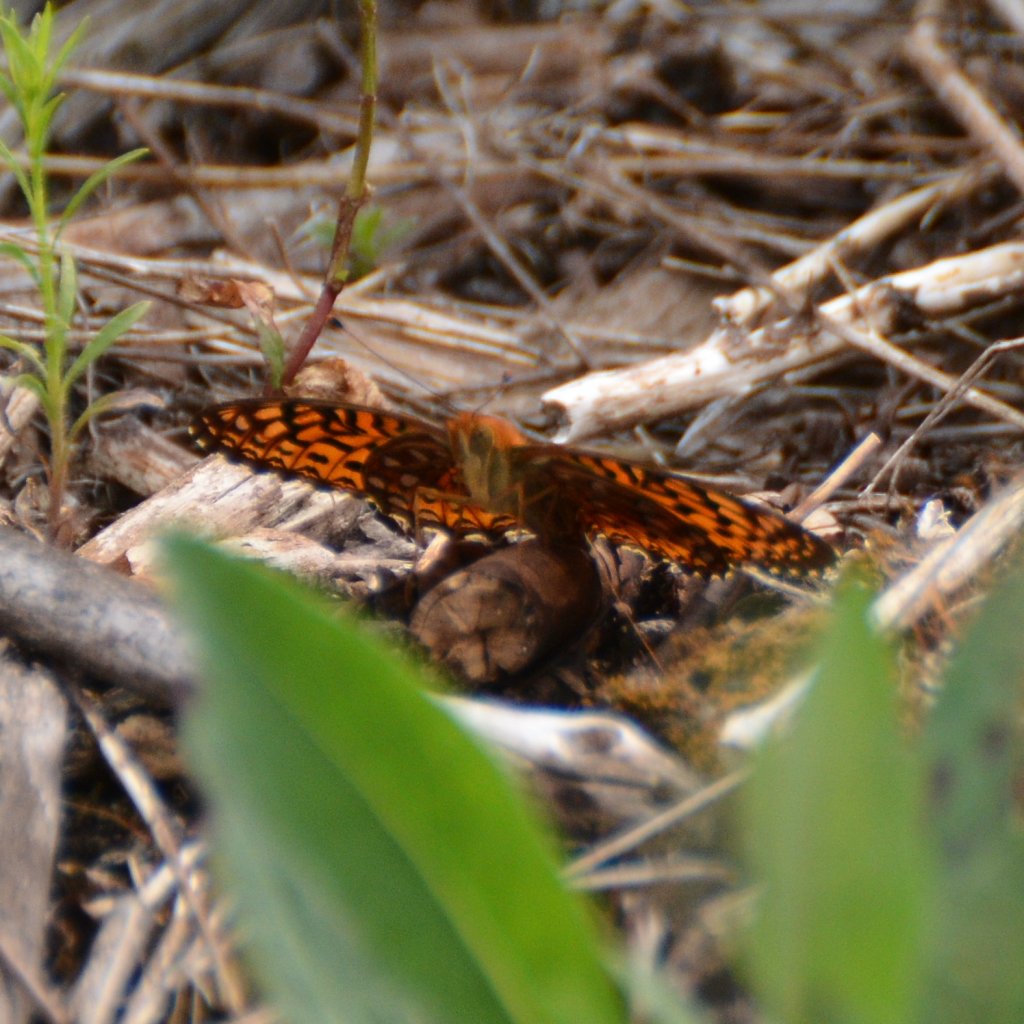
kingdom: Animalia
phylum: Arthropoda
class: Insecta
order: Lepidoptera
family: Nymphalidae
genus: Speyeria
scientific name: Speyeria aphrodite
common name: Aphrodite Fritillary
